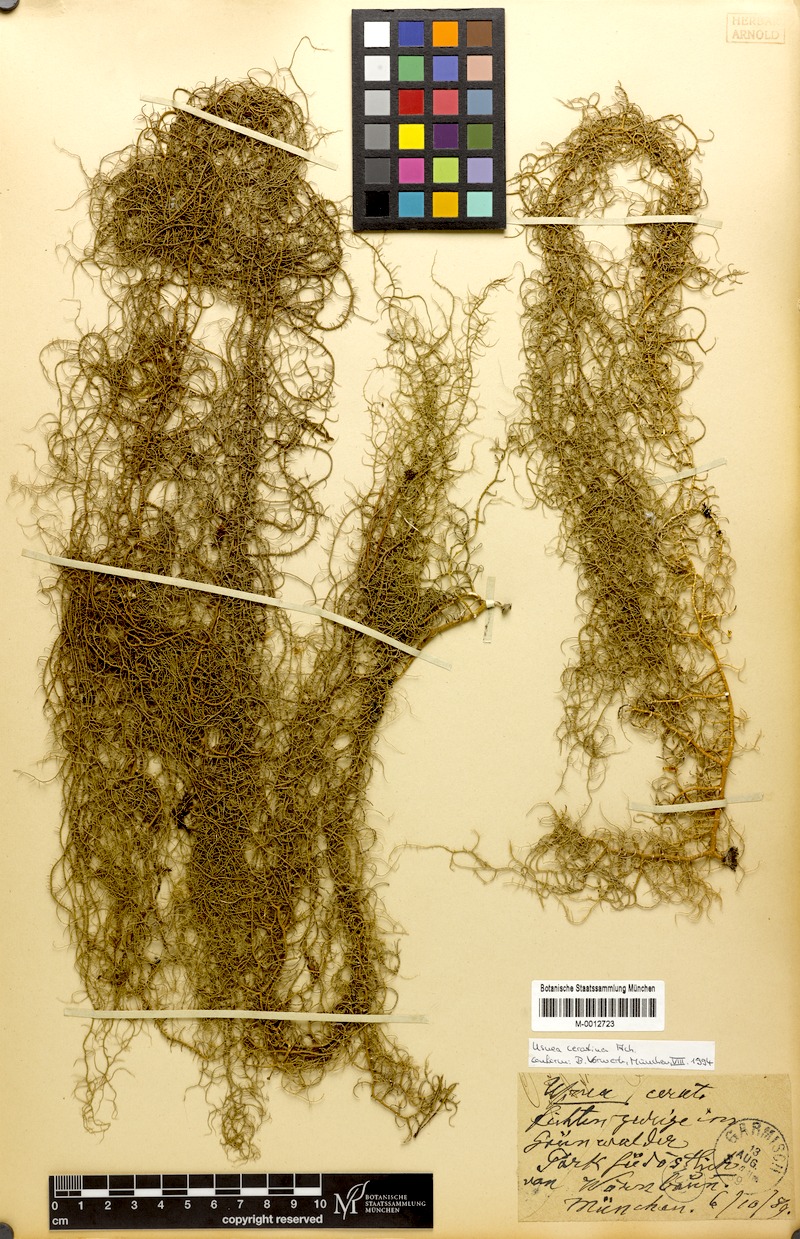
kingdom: Fungi
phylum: Ascomycota
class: Lecanoromycetes
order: Lecanorales
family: Parmeliaceae
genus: Usnea
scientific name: Usnea ceratina
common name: Warty beard lichen
